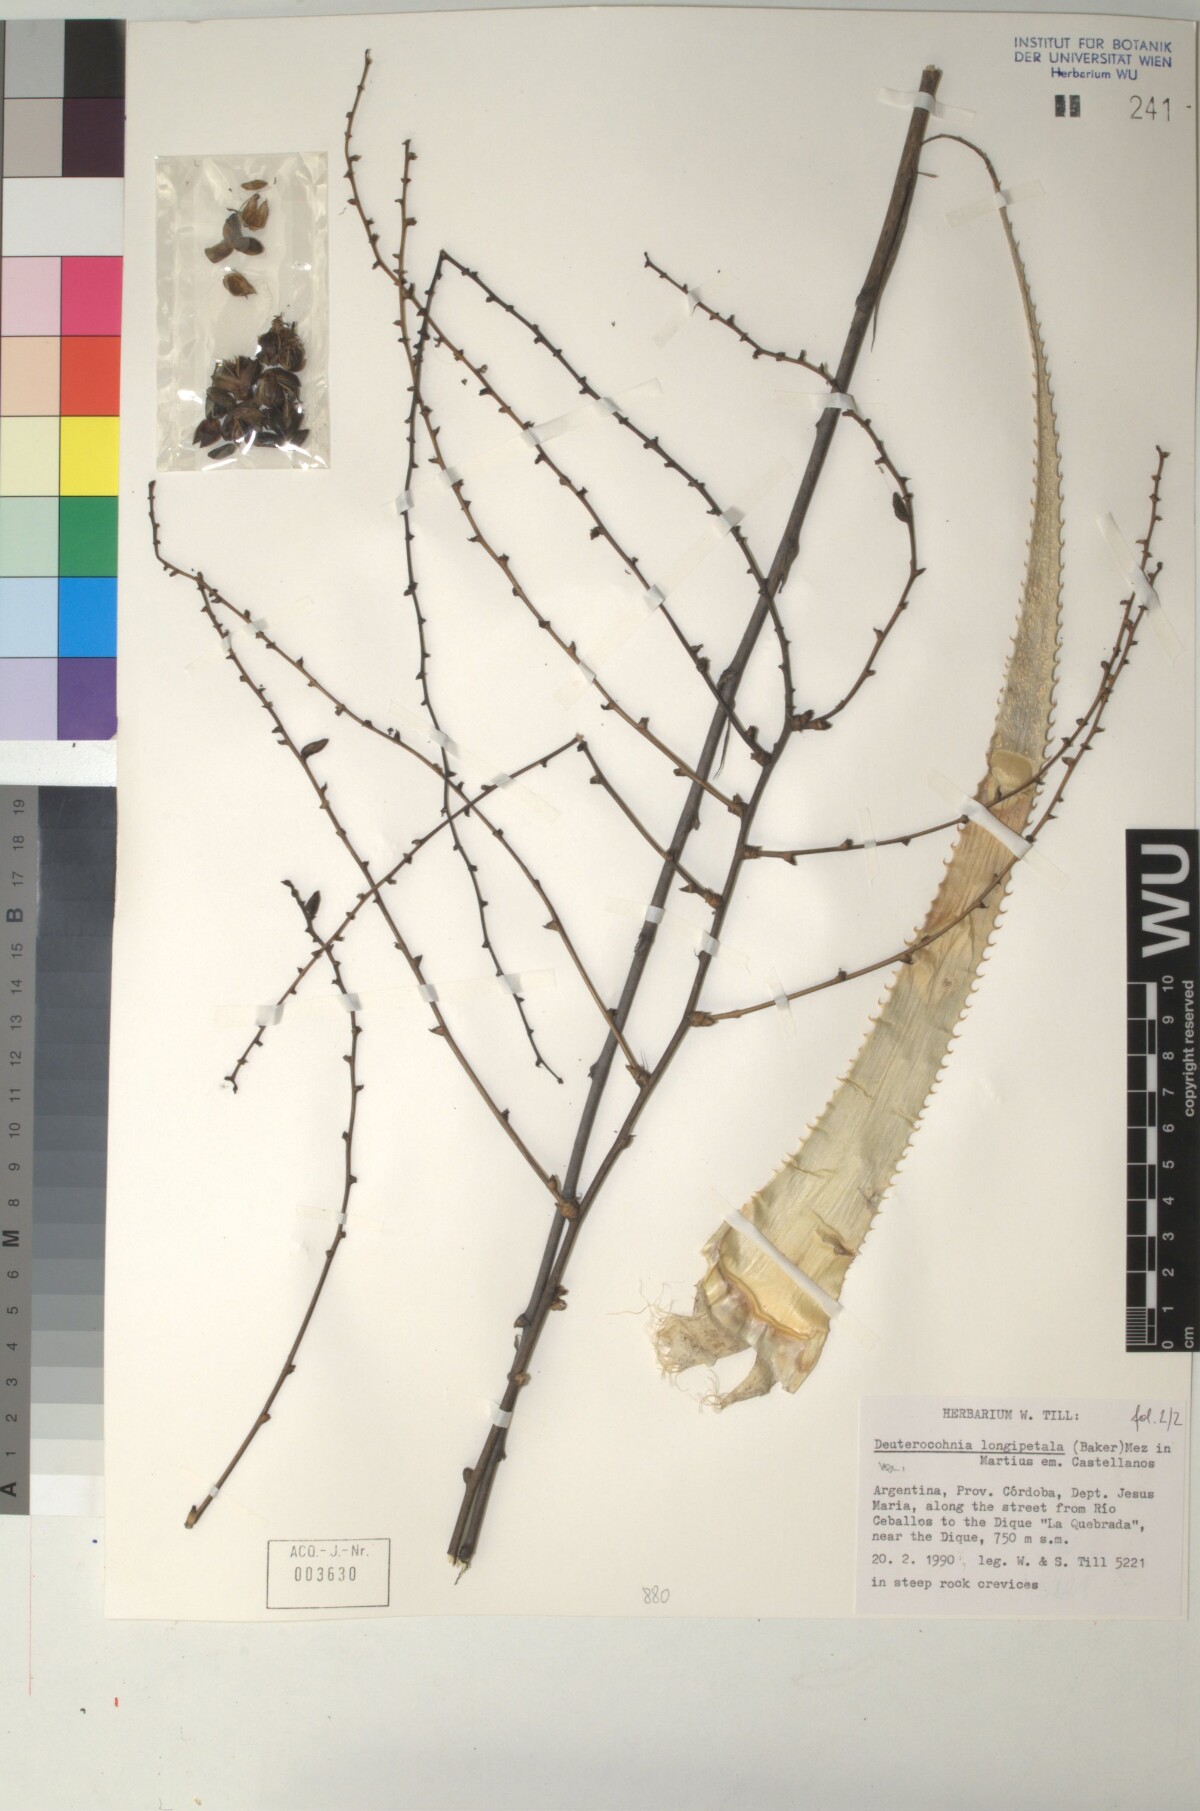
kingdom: Plantae
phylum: Tracheophyta
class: Liliopsida
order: Poales
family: Bromeliaceae
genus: Deuterocohnia
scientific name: Deuterocohnia longipetala
